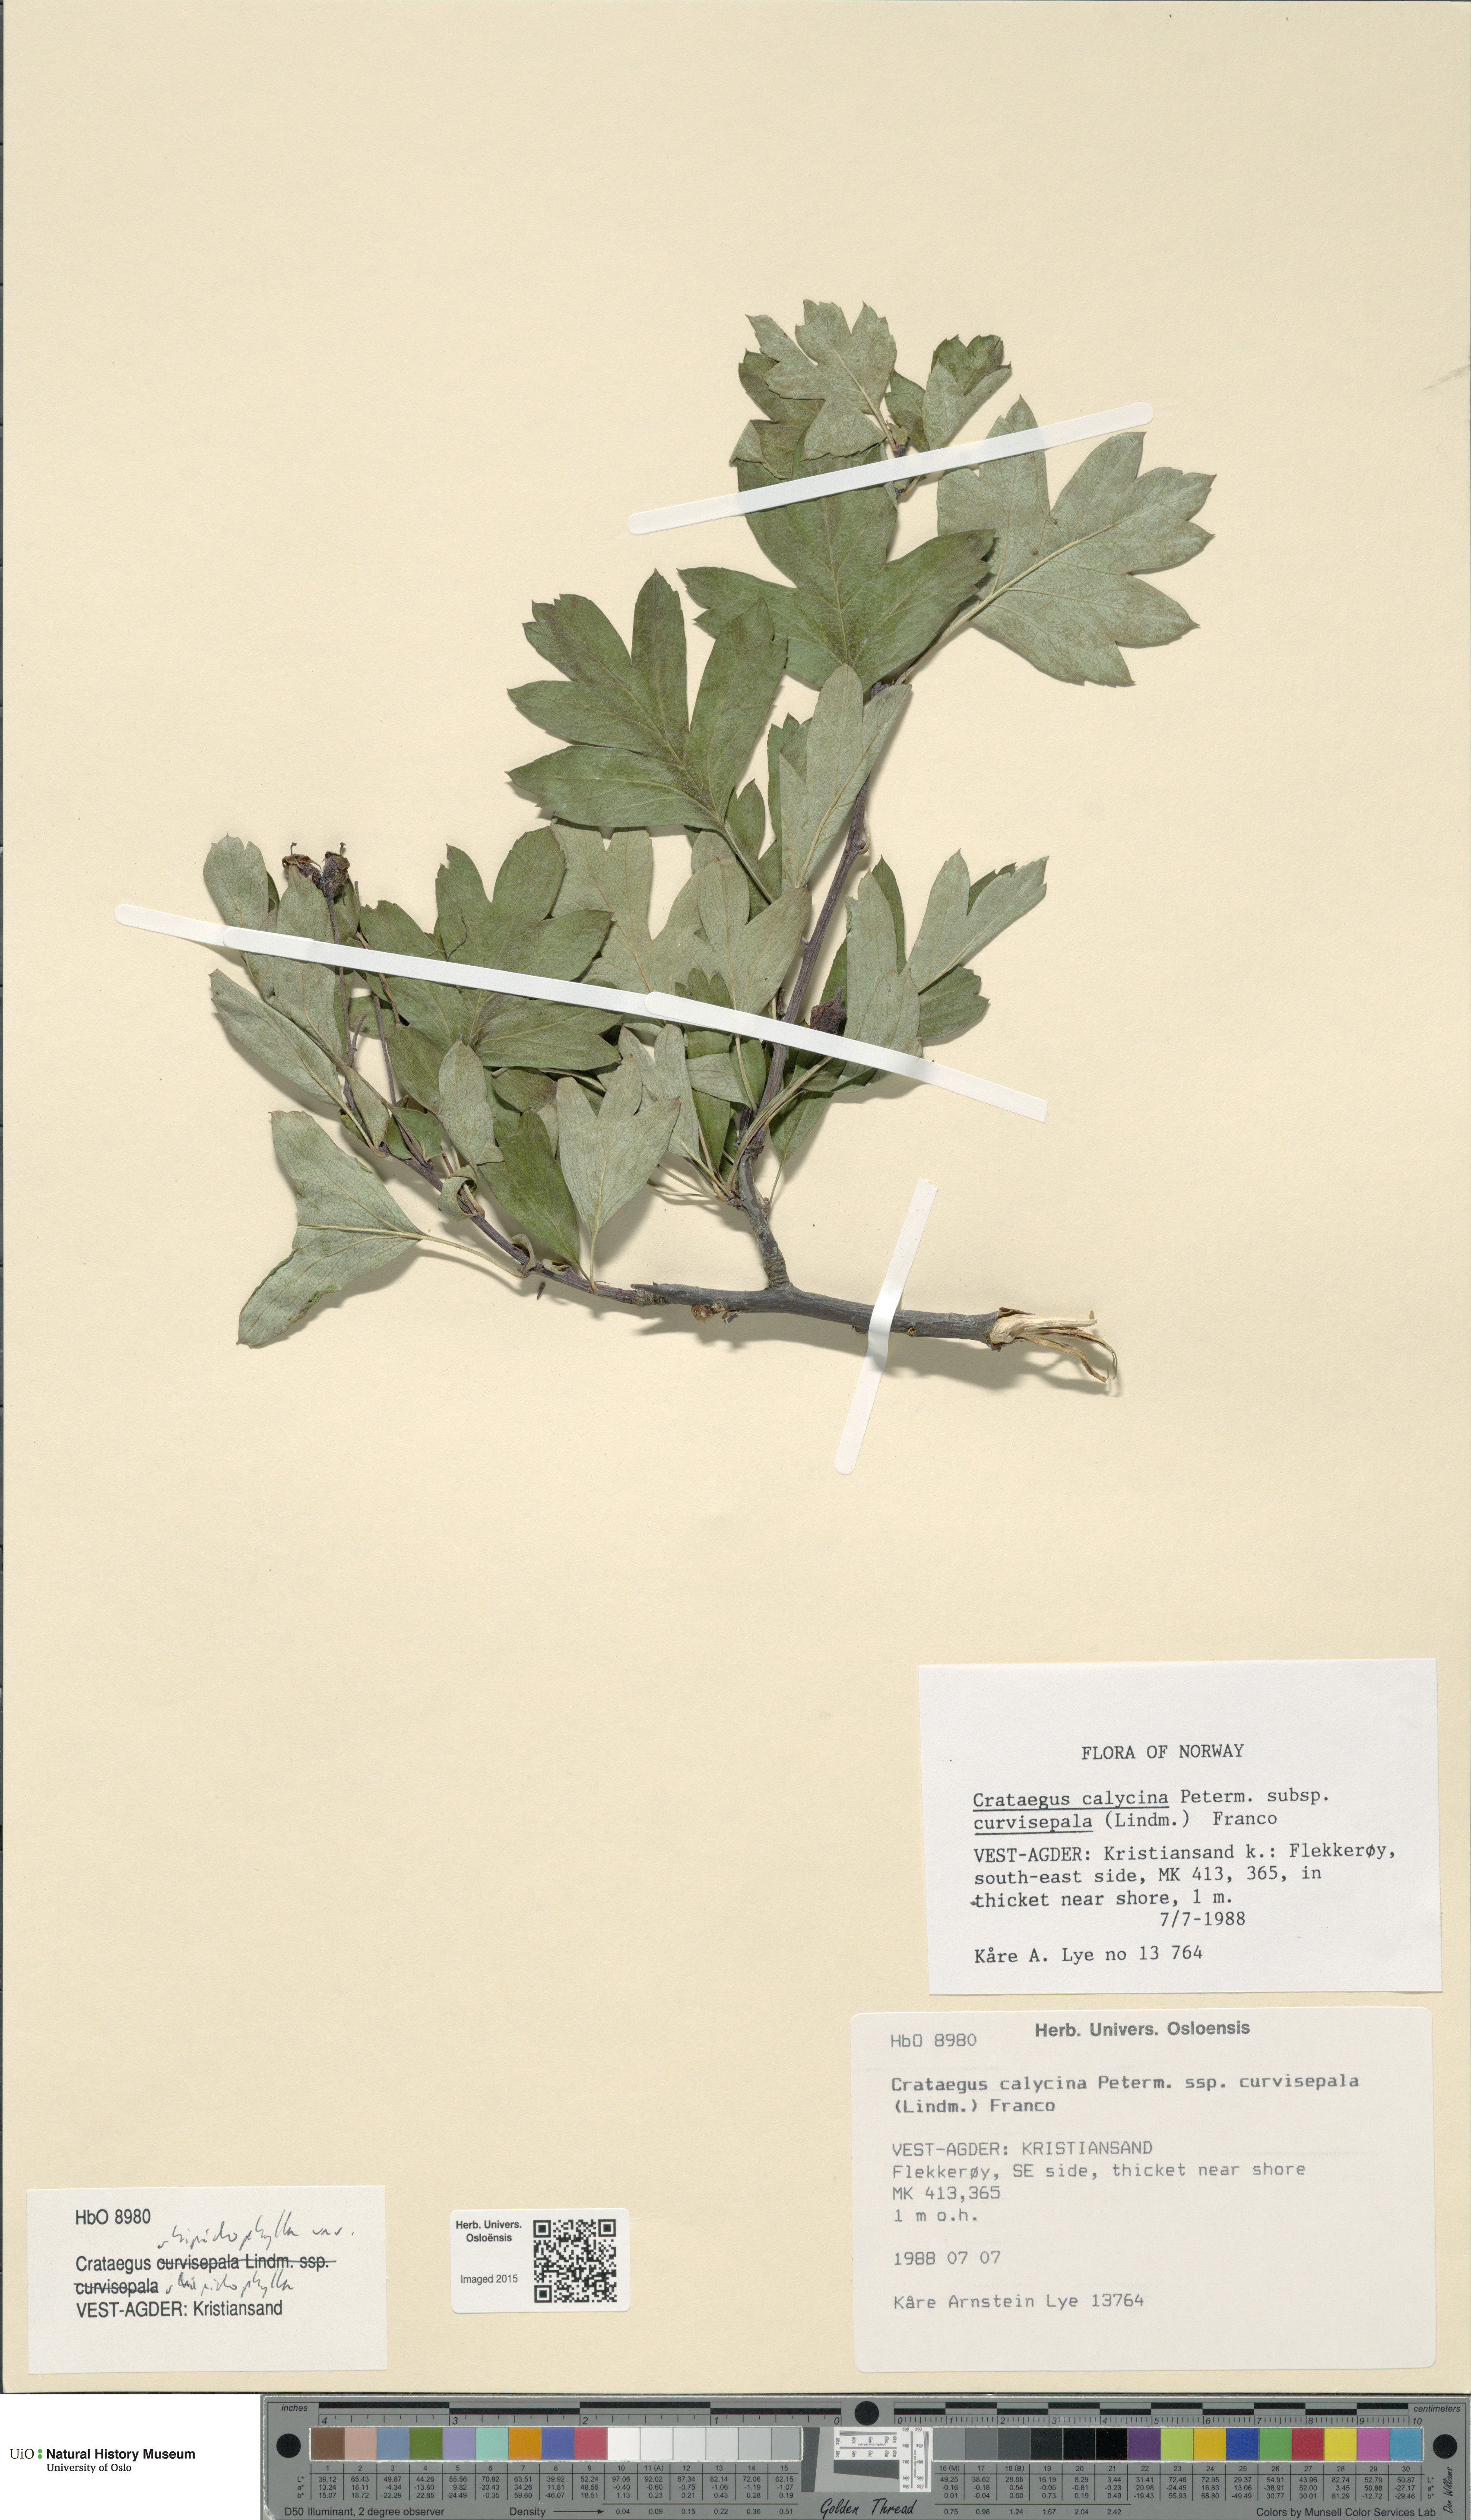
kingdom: Plantae
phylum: Tracheophyta
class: Magnoliopsida
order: Rosales
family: Rosaceae
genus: Crataegus
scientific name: Crataegus rhipidophylla
